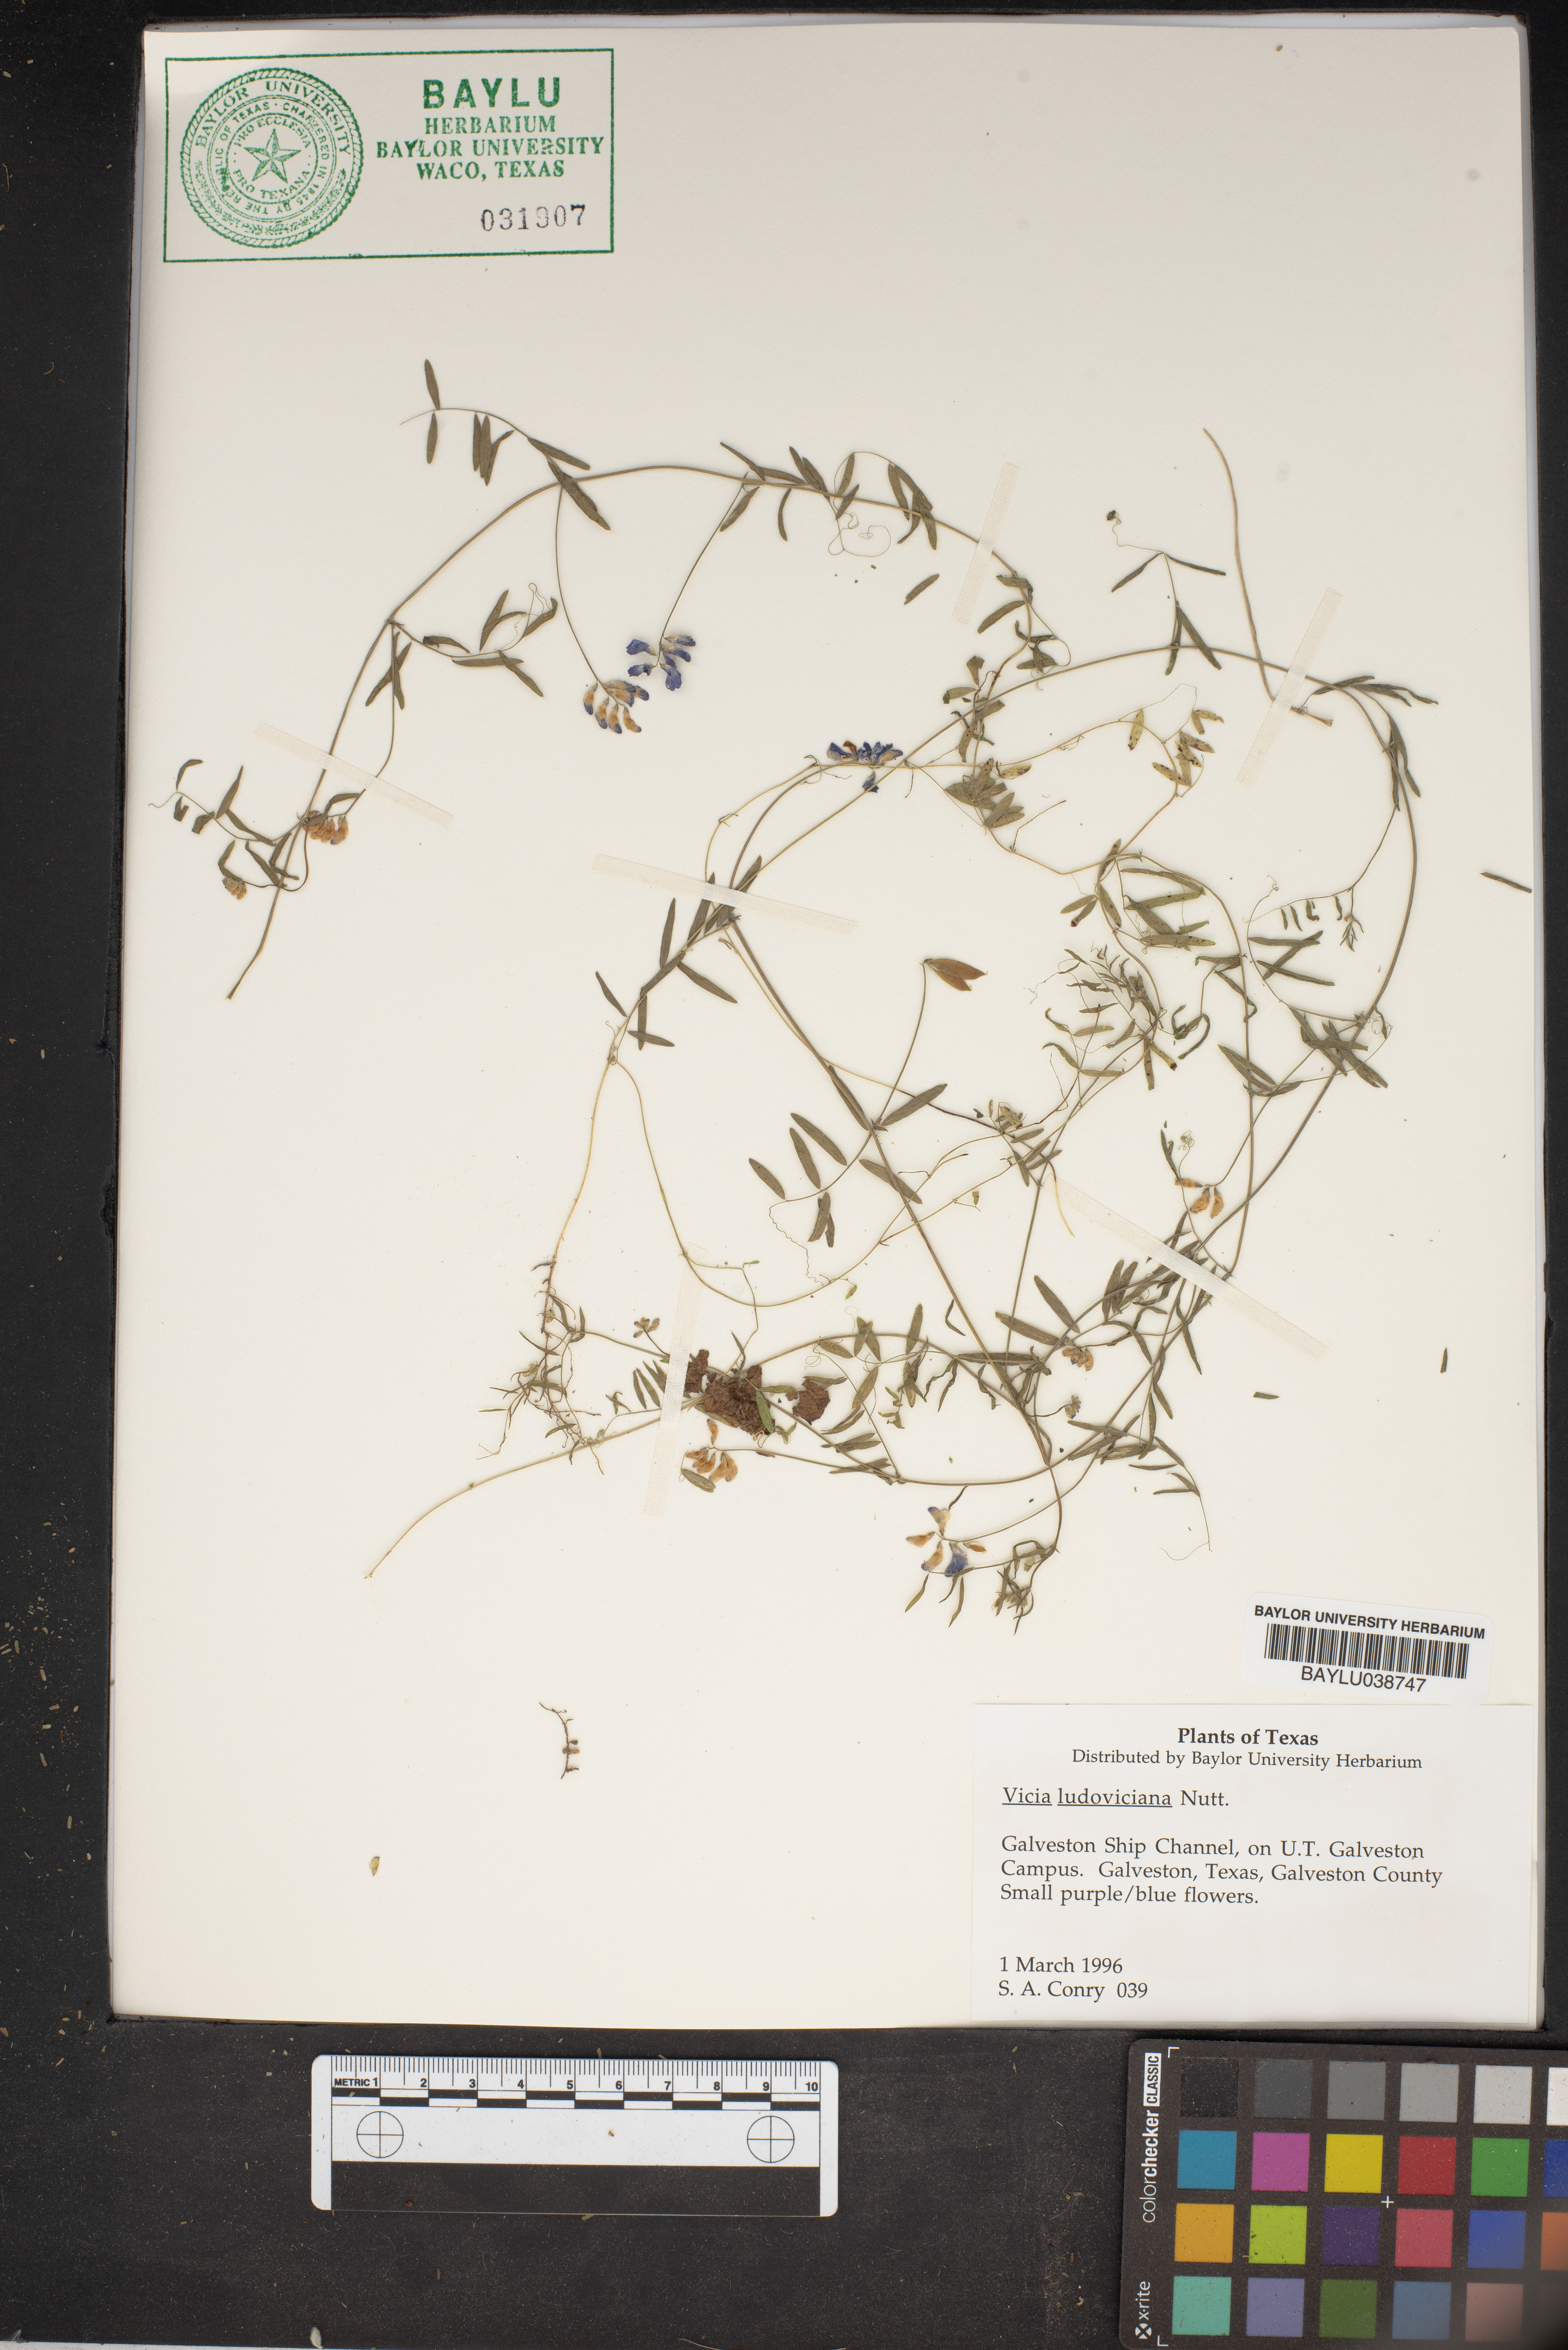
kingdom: Plantae
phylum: Tracheophyta
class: Magnoliopsida
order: Fabales
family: Fabaceae
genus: Vicia
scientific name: Vicia ludoviciana
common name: Louisiana vetch
